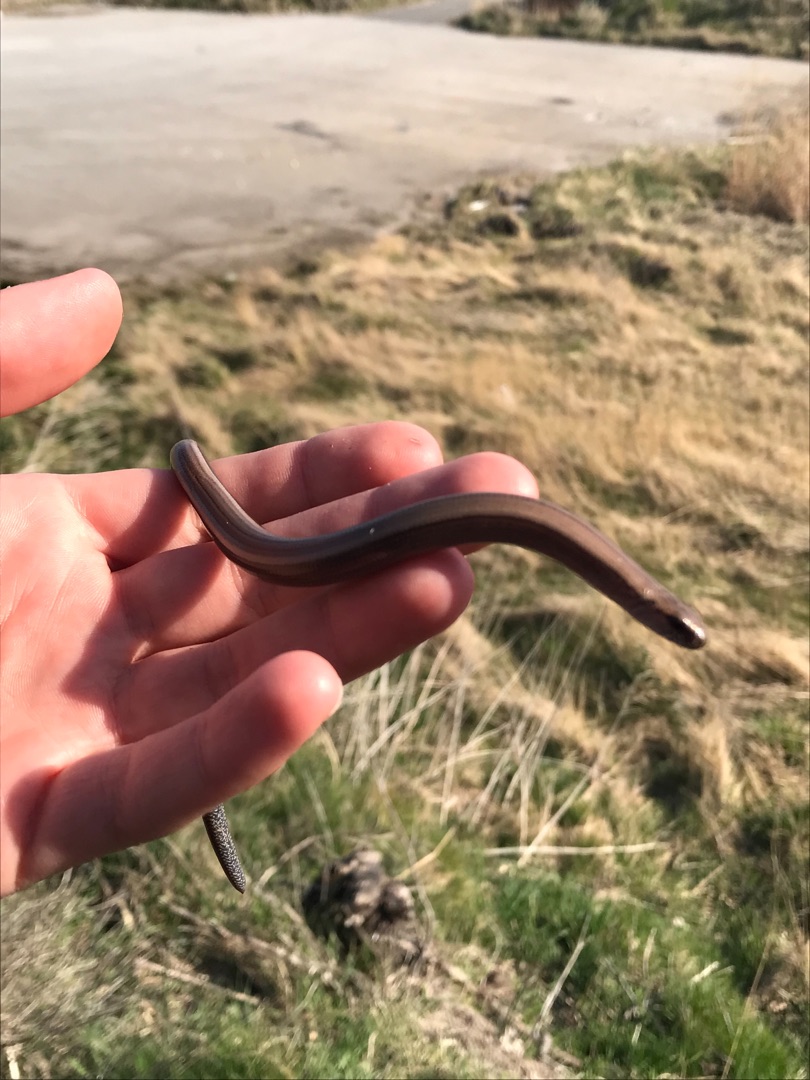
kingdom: Animalia
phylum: Chordata
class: Squamata
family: Anguidae
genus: Anguis
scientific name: Anguis fragilis
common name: Stålorm
